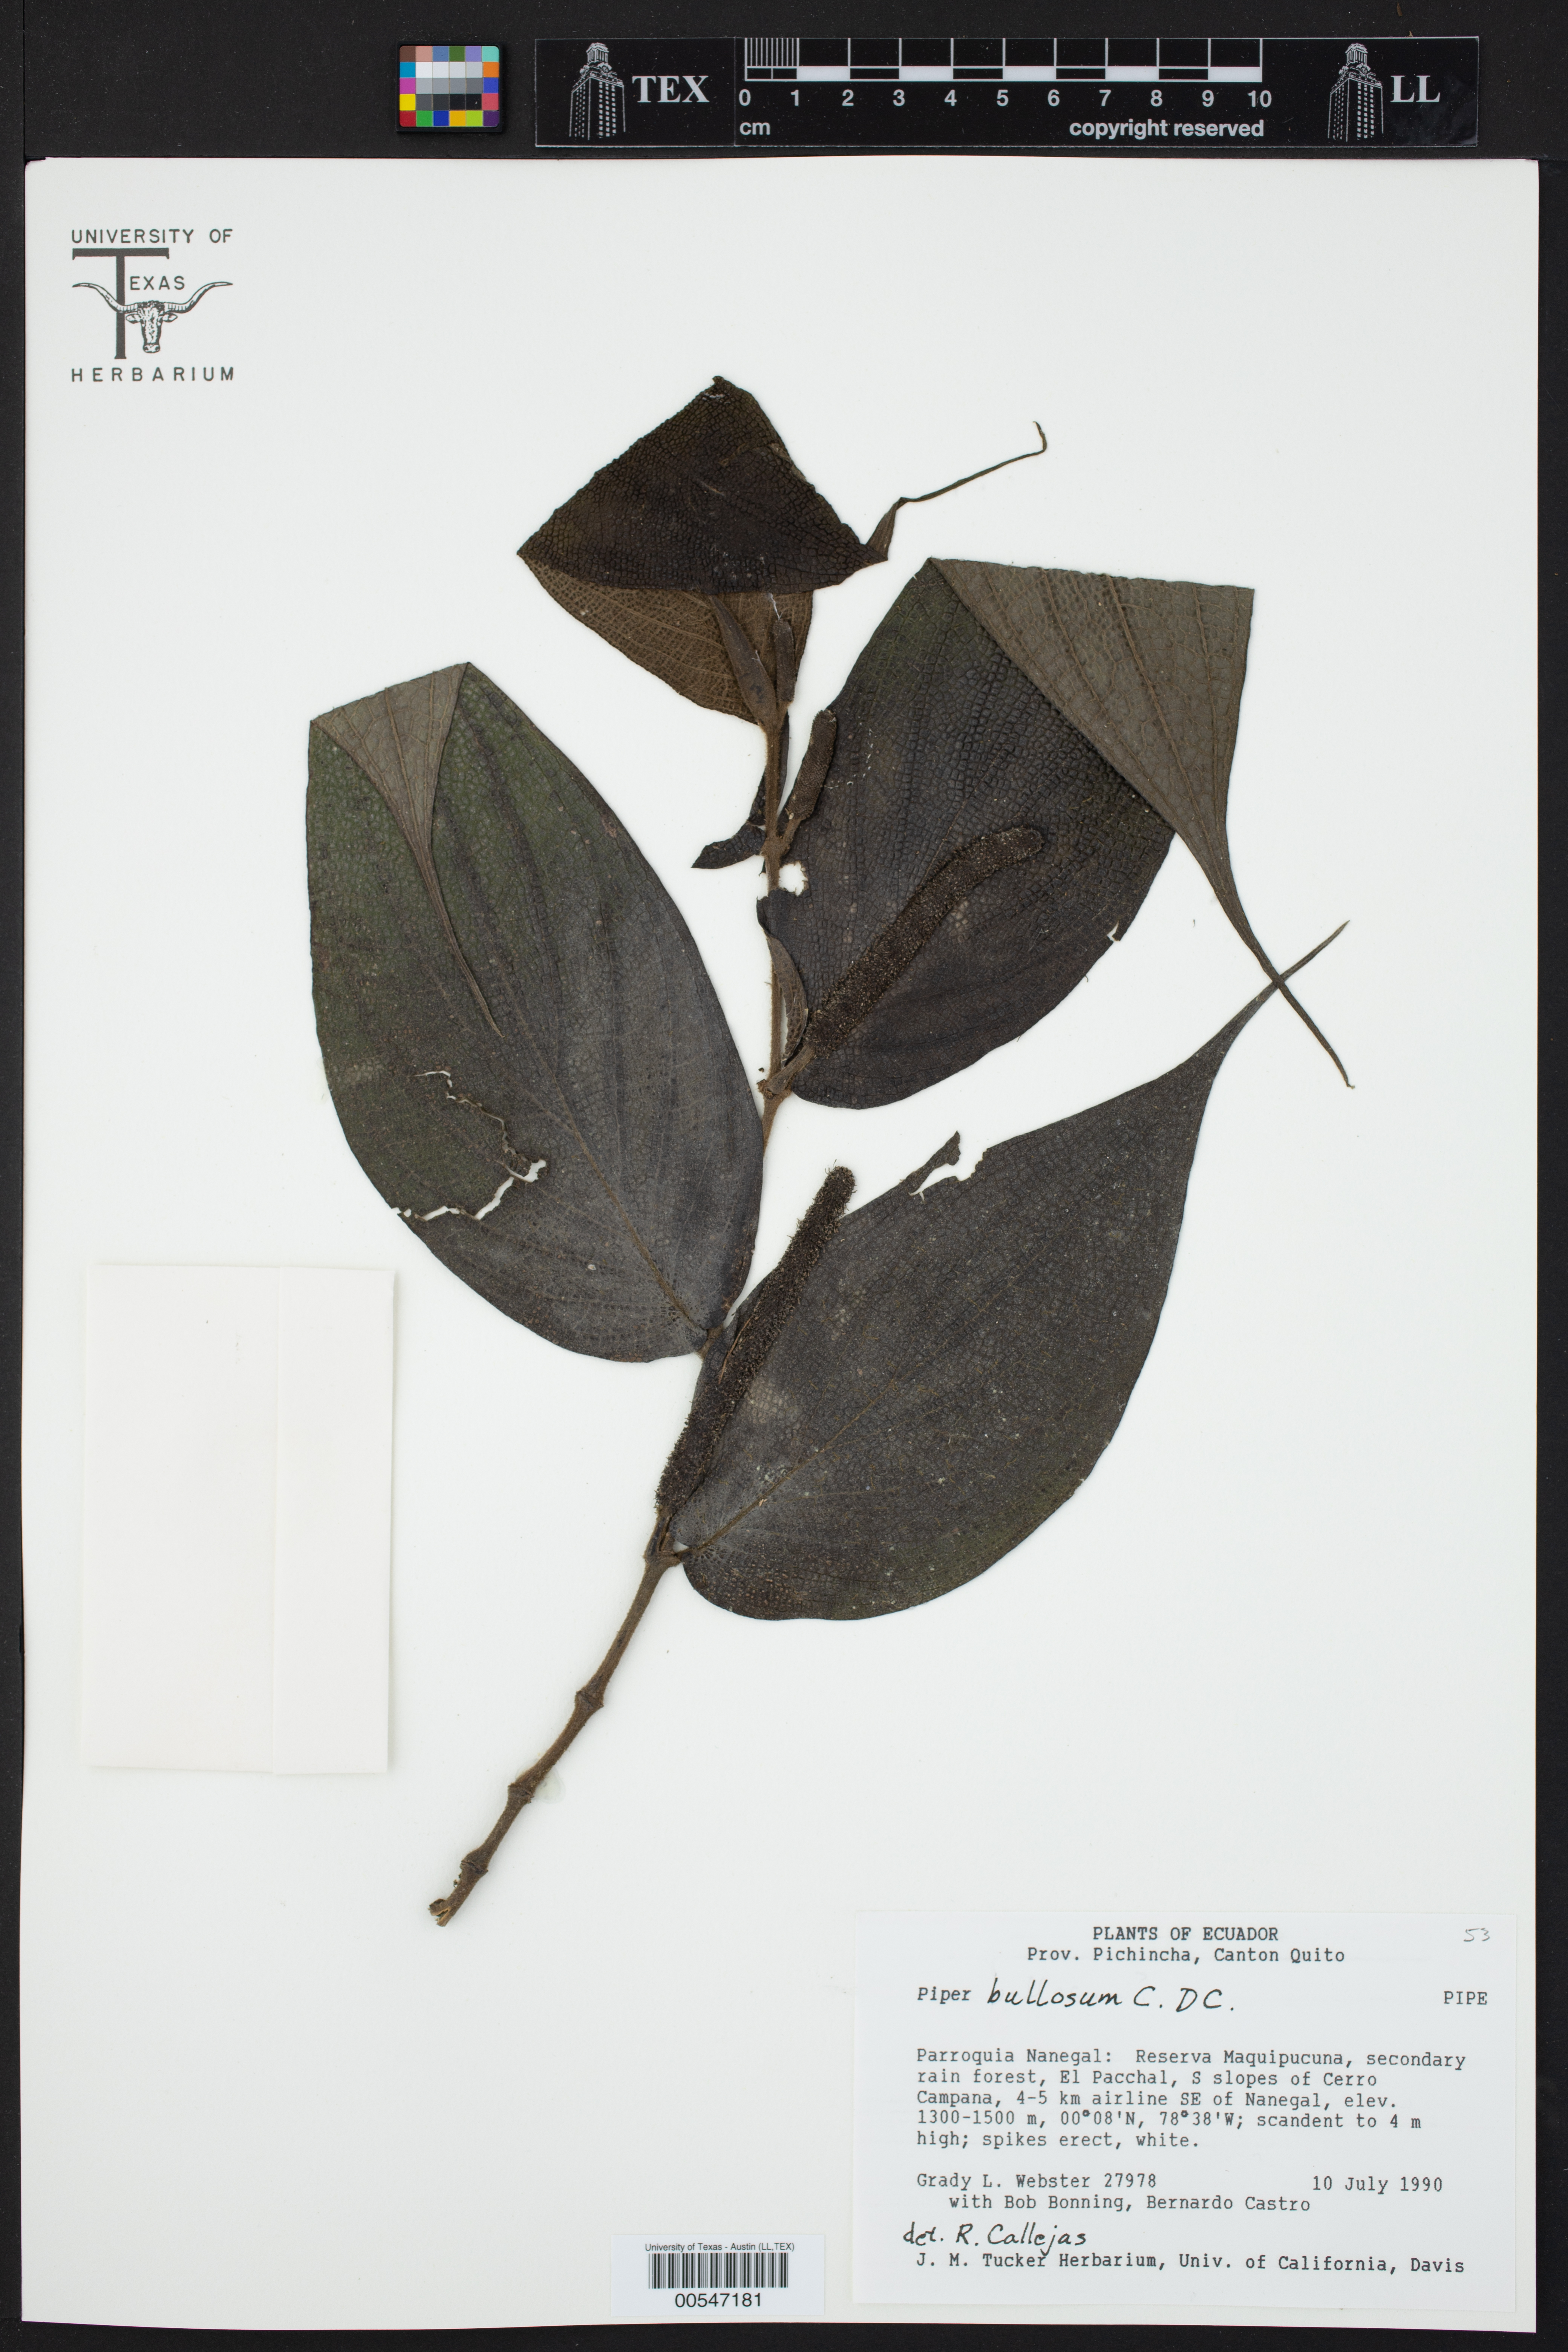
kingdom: Plantae
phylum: Tracheophyta
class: Magnoliopsida
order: Piperales
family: Piperaceae
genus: Piper
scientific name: Piper bullosum
